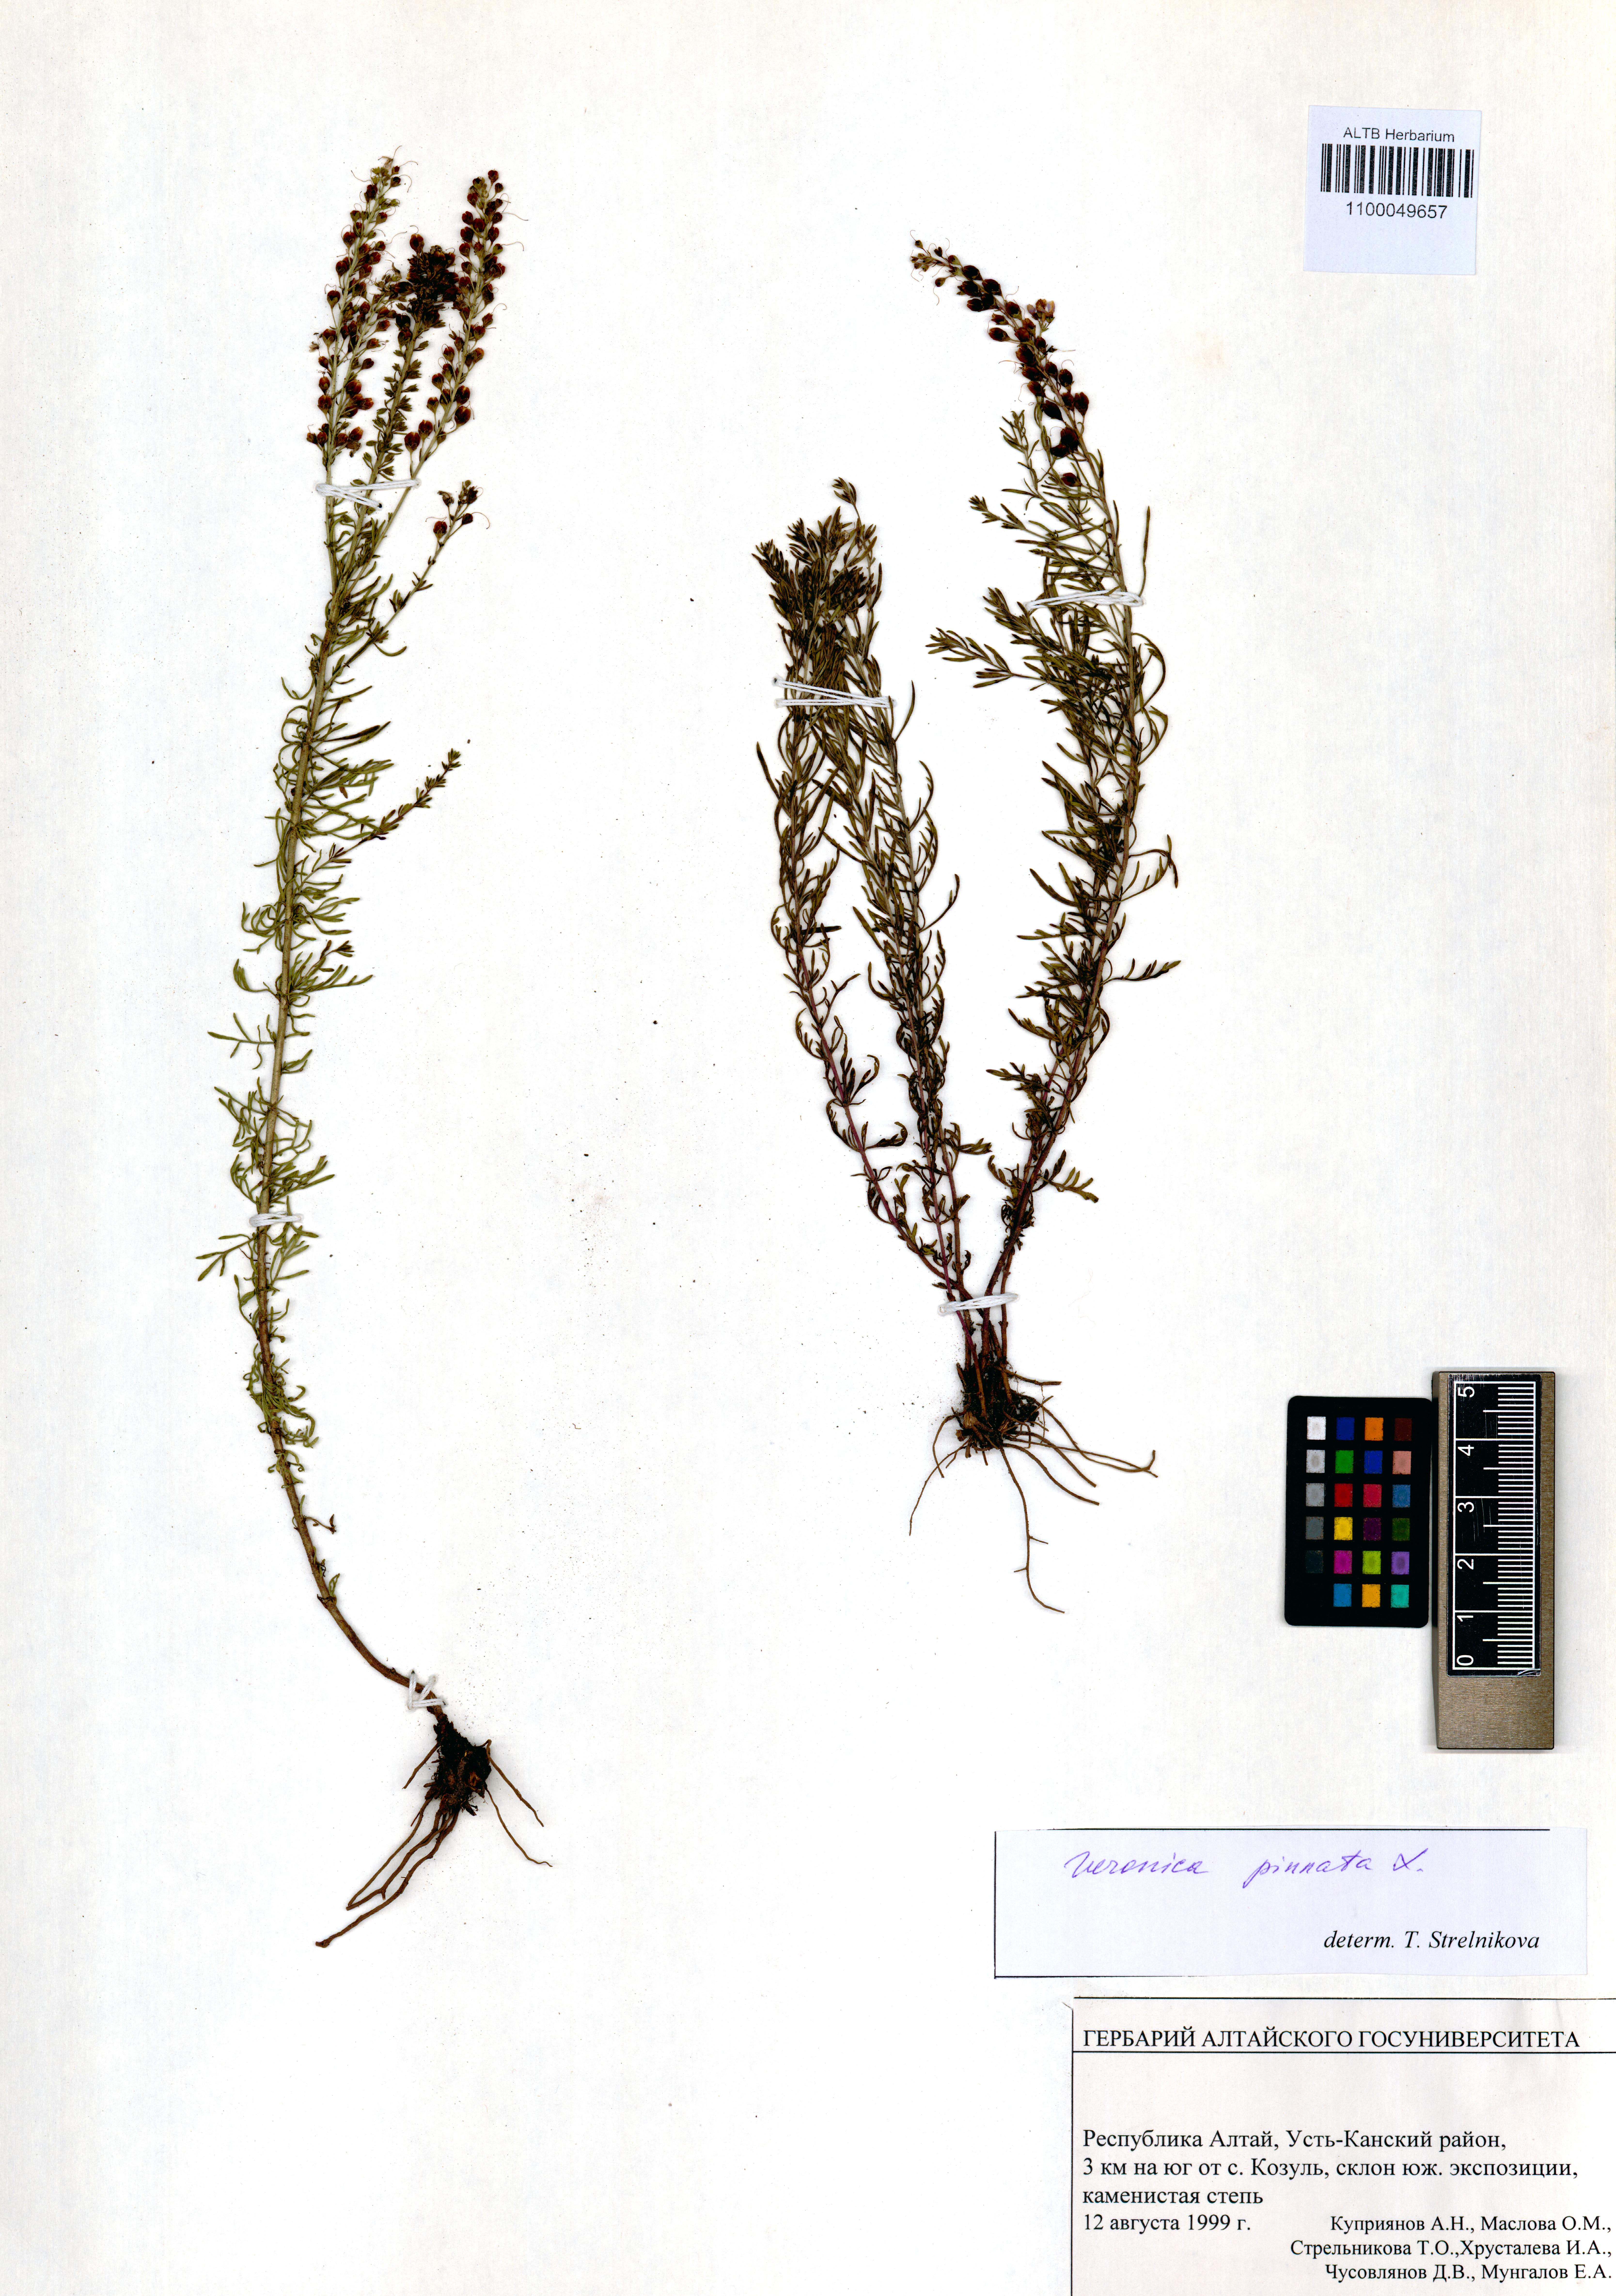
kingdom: Plantae
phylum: Tracheophyta
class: Magnoliopsida
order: Lamiales
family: Plantaginaceae
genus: Veronica
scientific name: Veronica pinnata
